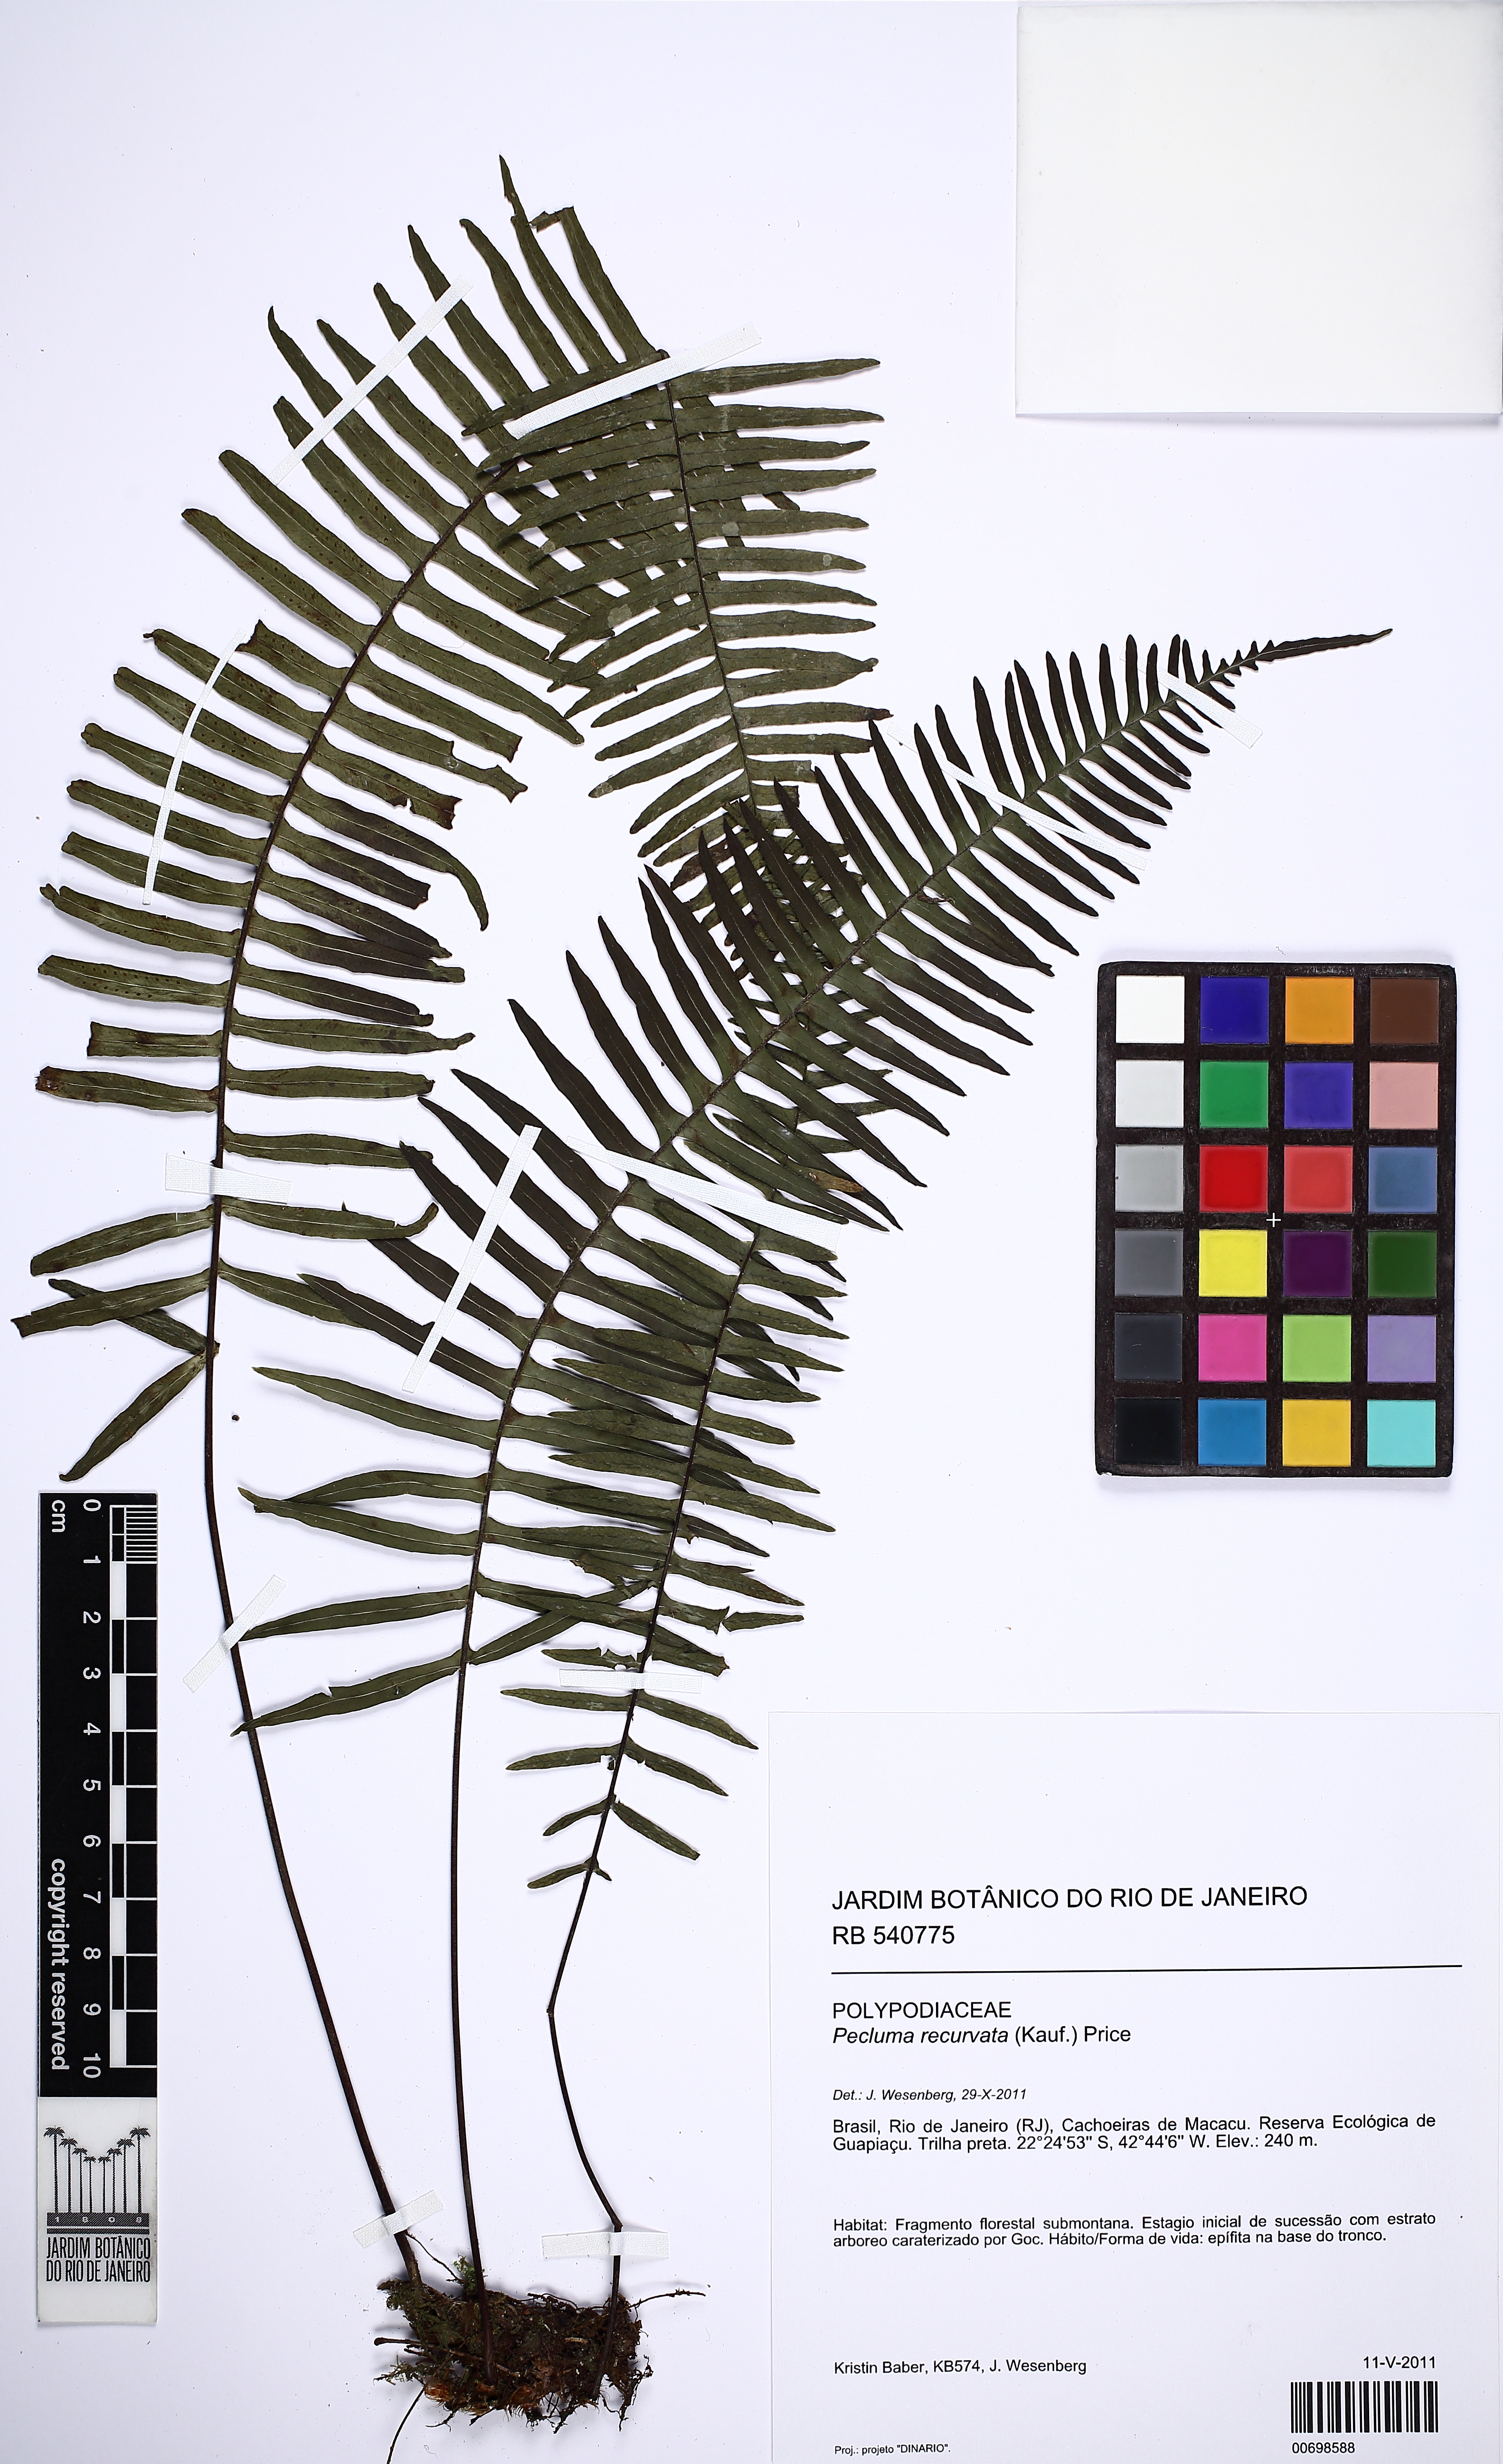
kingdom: Plantae
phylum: Tracheophyta
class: Polypodiopsida
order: Polypodiales
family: Polypodiaceae
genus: Pecluma
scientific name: Pecluma recurvata
